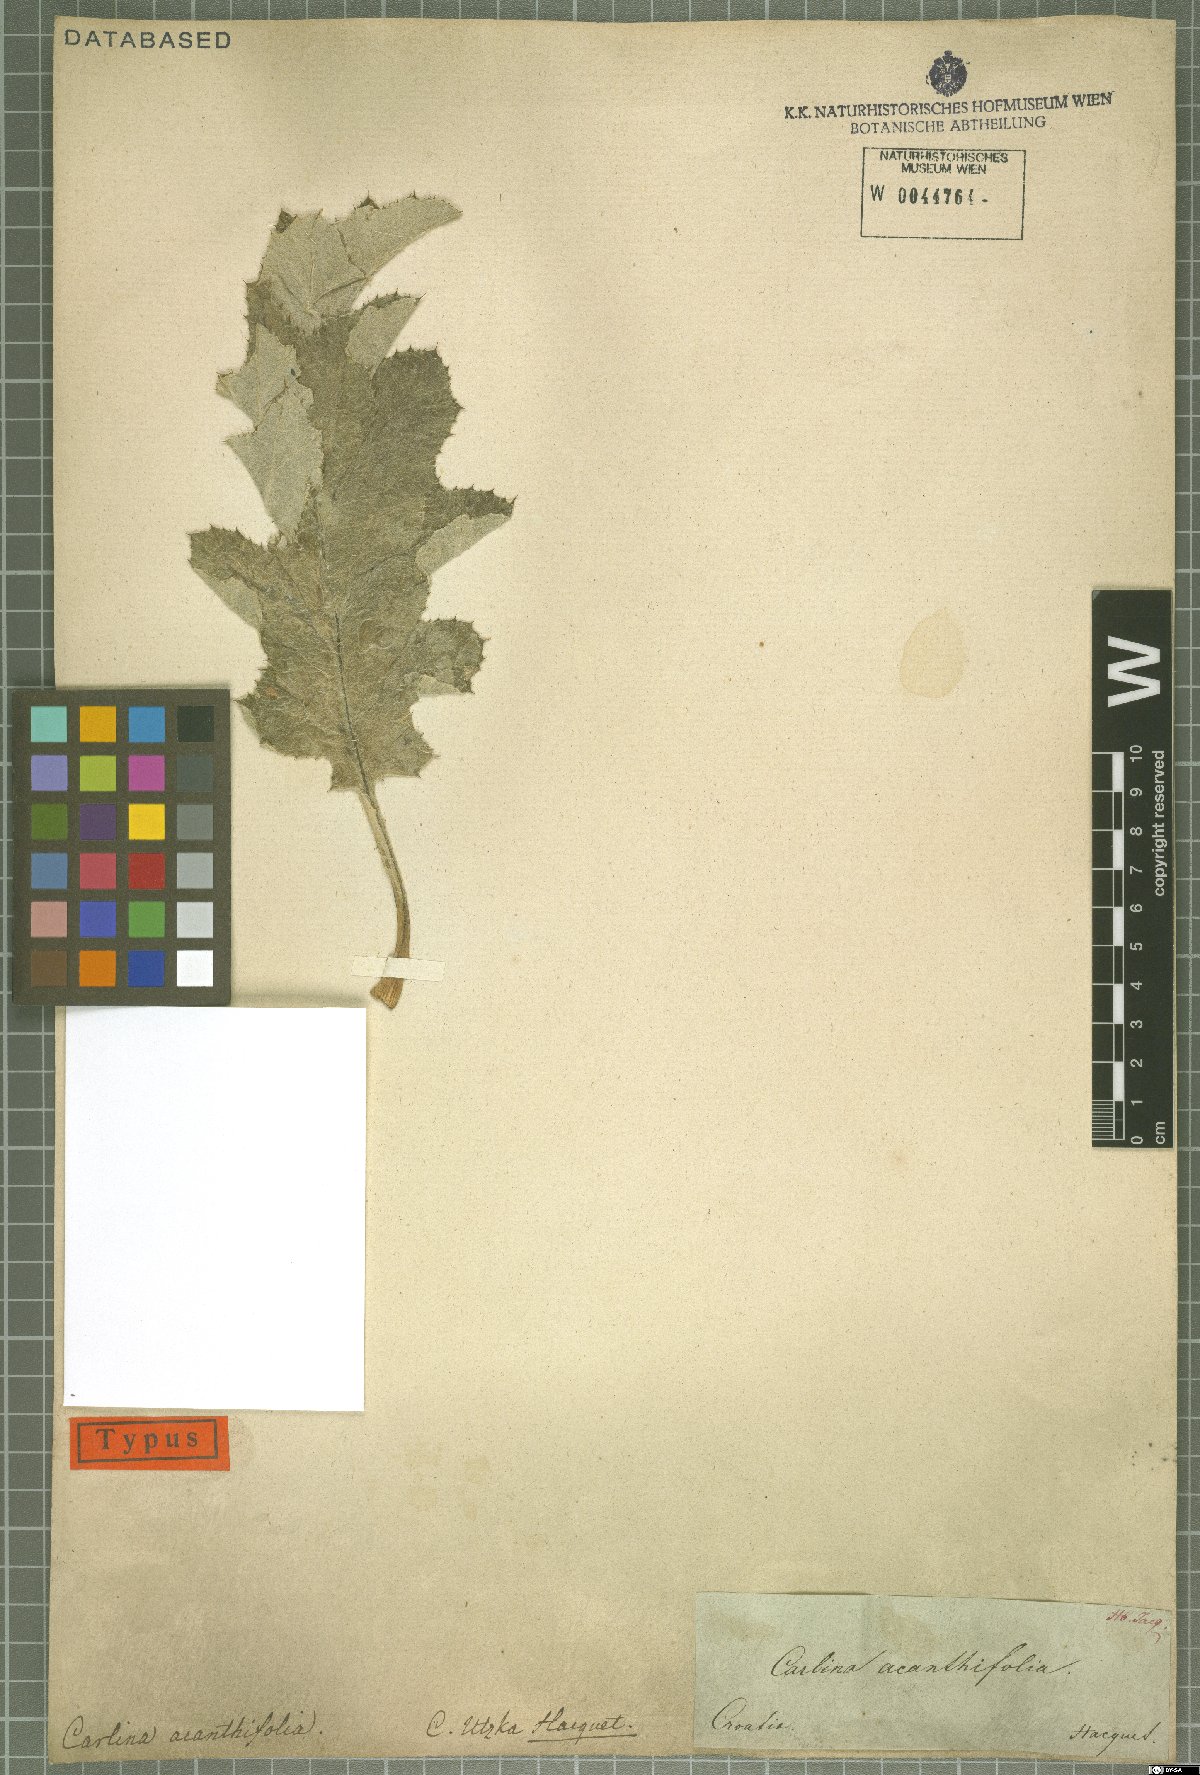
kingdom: Plantae
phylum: Tracheophyta
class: Magnoliopsida
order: Asterales
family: Asteraceae
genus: Carlina
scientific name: Carlina acanthifolia
